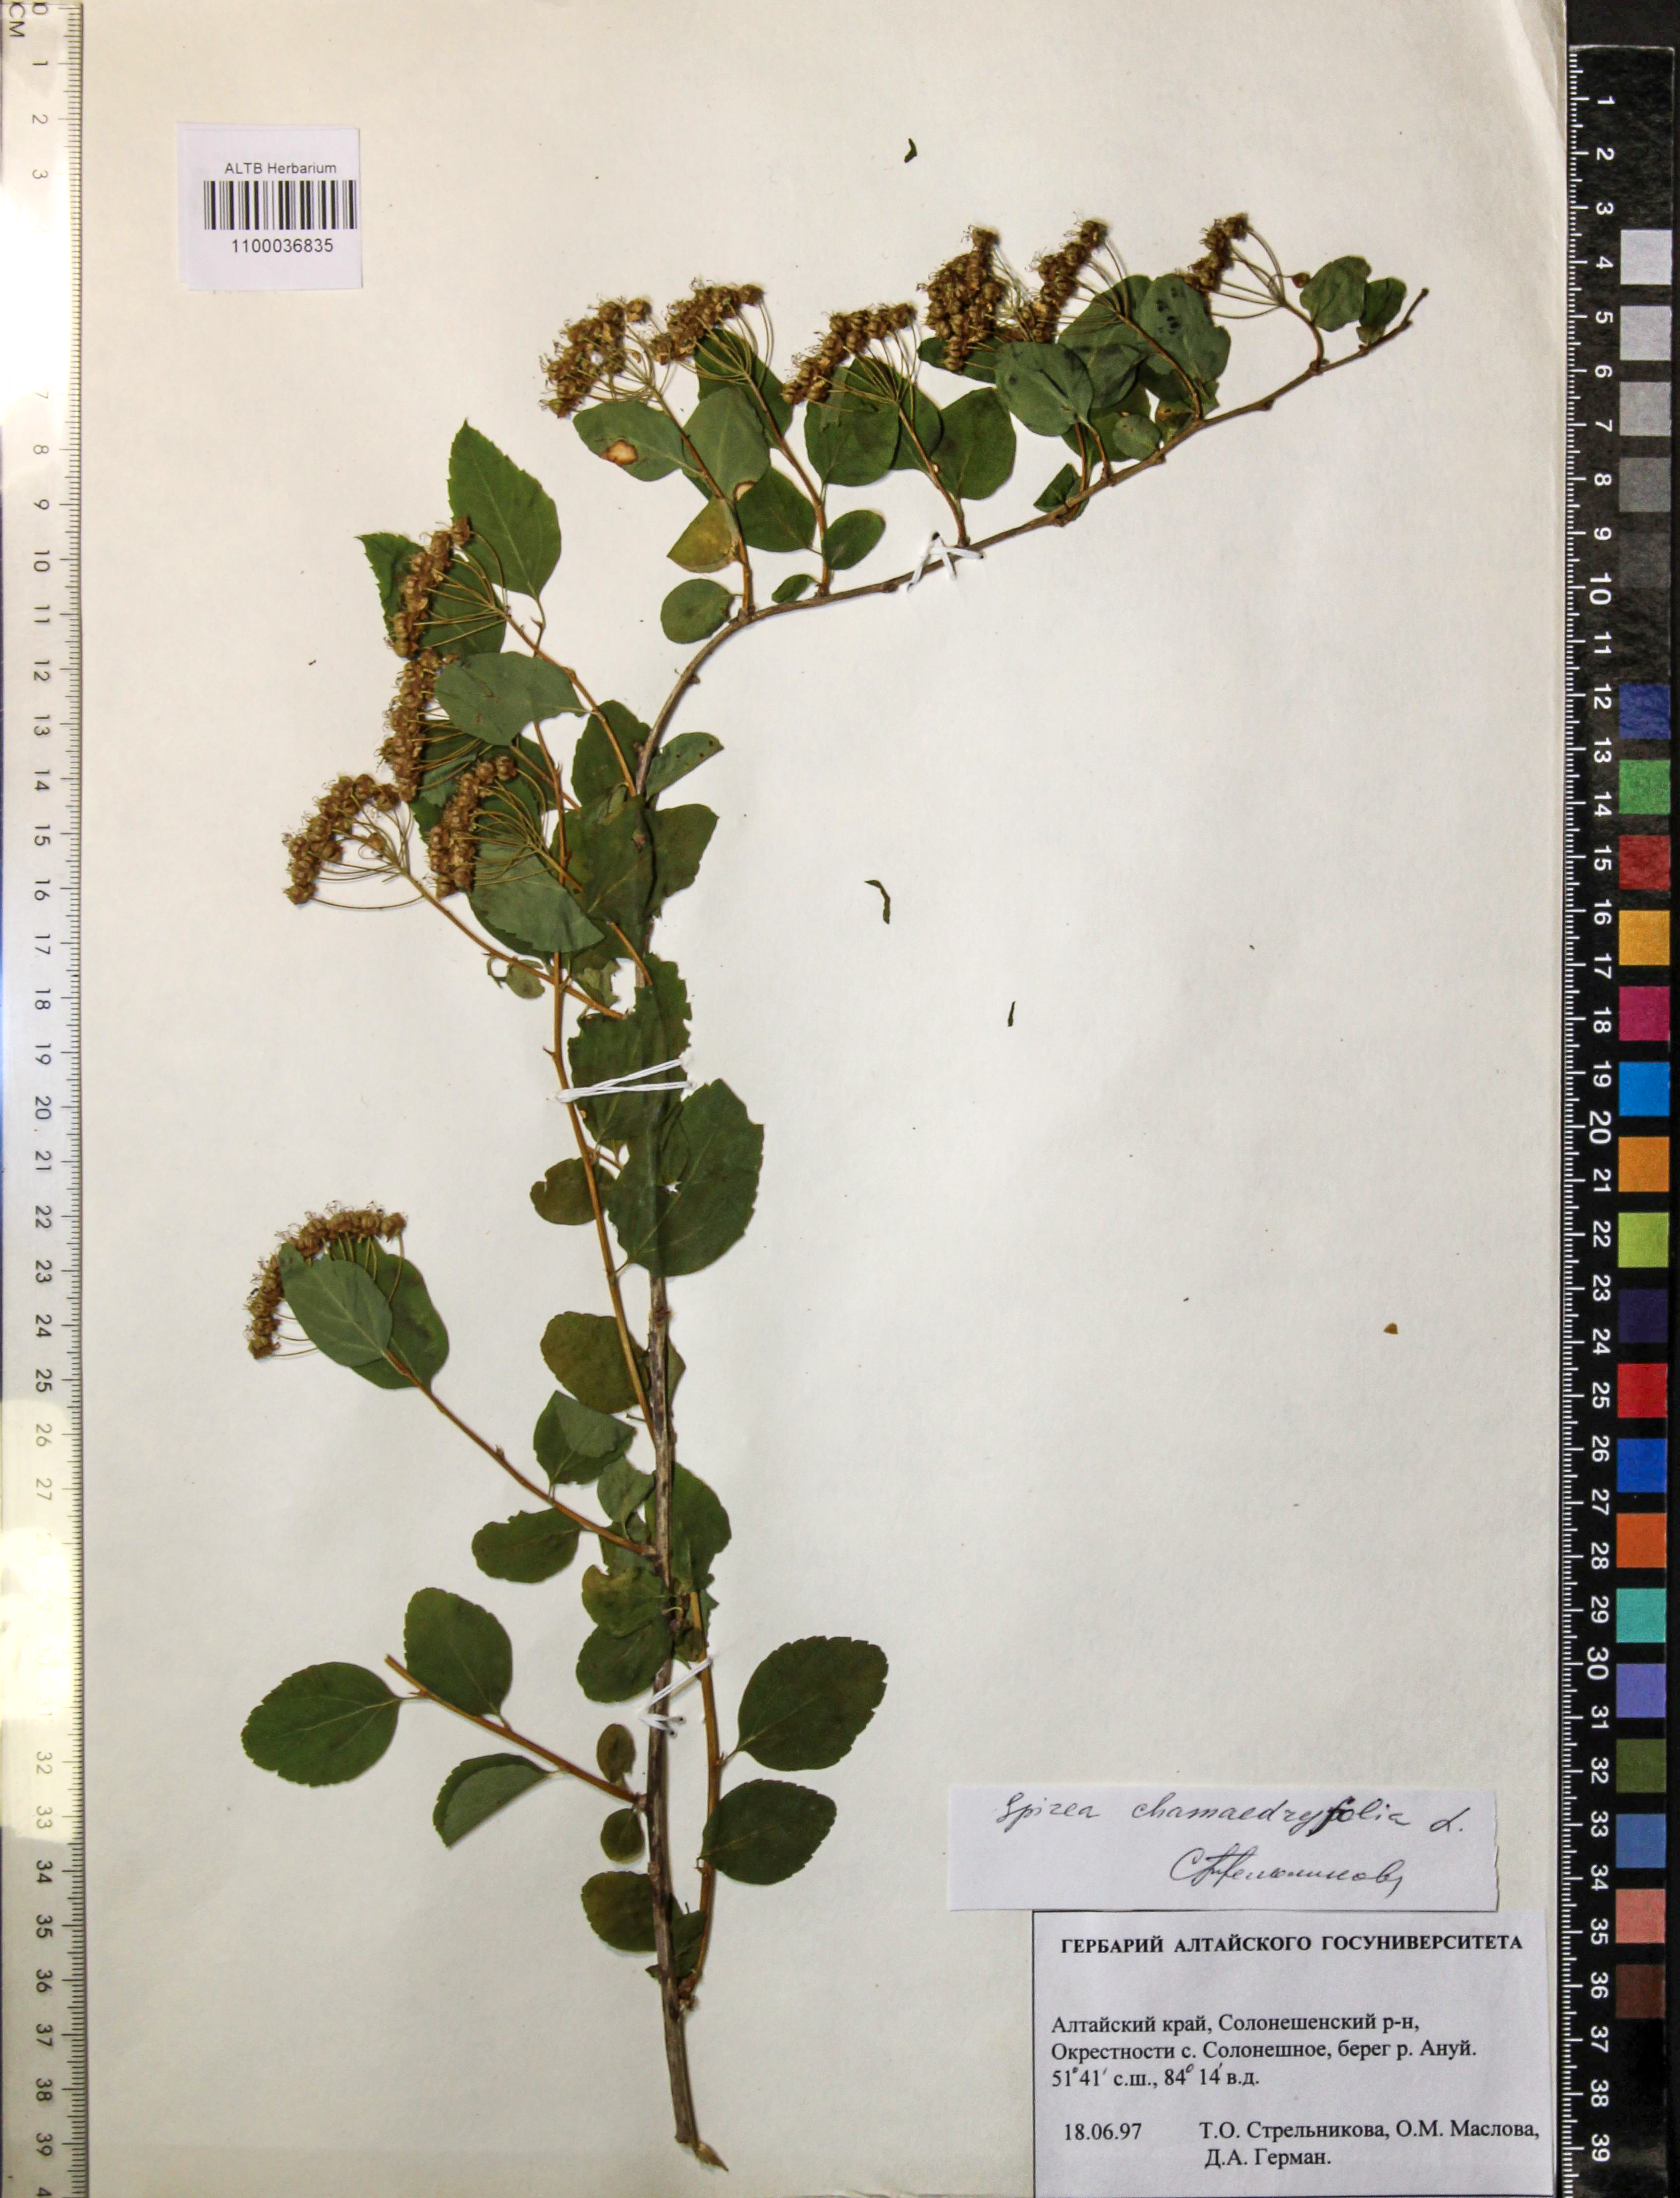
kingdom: Plantae
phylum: Tracheophyta
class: Magnoliopsida
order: Rosales
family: Rosaceae
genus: Spiraea
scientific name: Spiraea chamaedryfolia
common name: Elm-leaved spiraea
